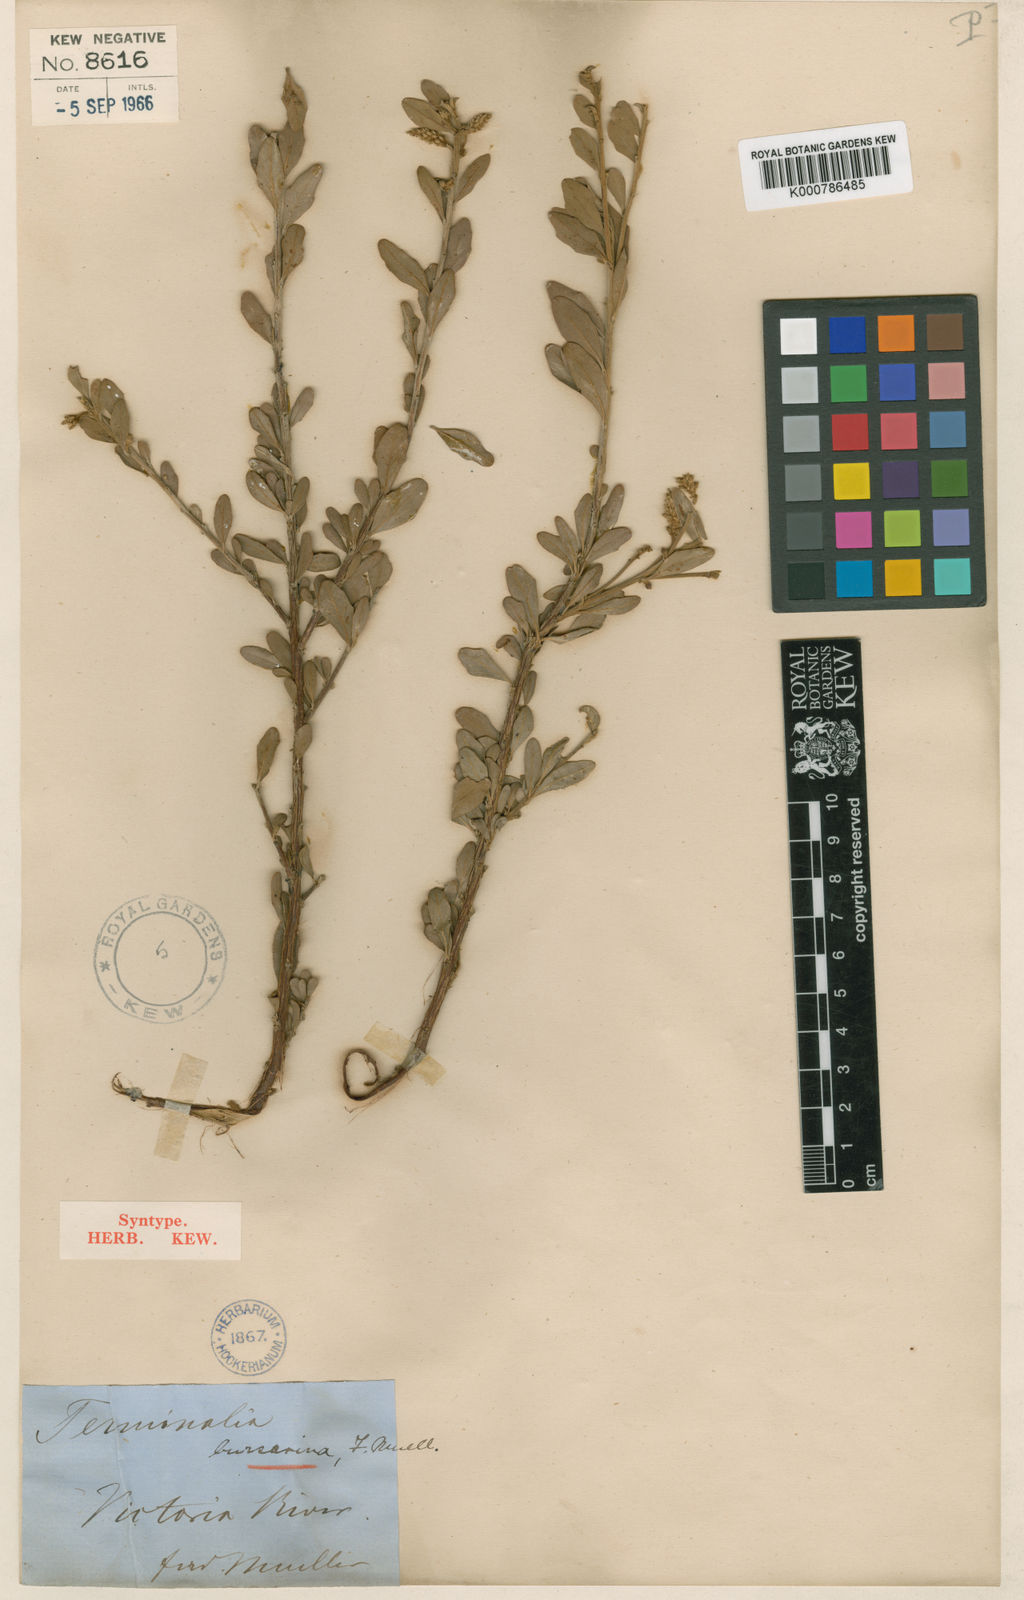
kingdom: Plantae
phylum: Tracheophyta
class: Magnoliopsida
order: Myrtales
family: Combretaceae
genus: Terminalia
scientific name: Terminalia canescens
